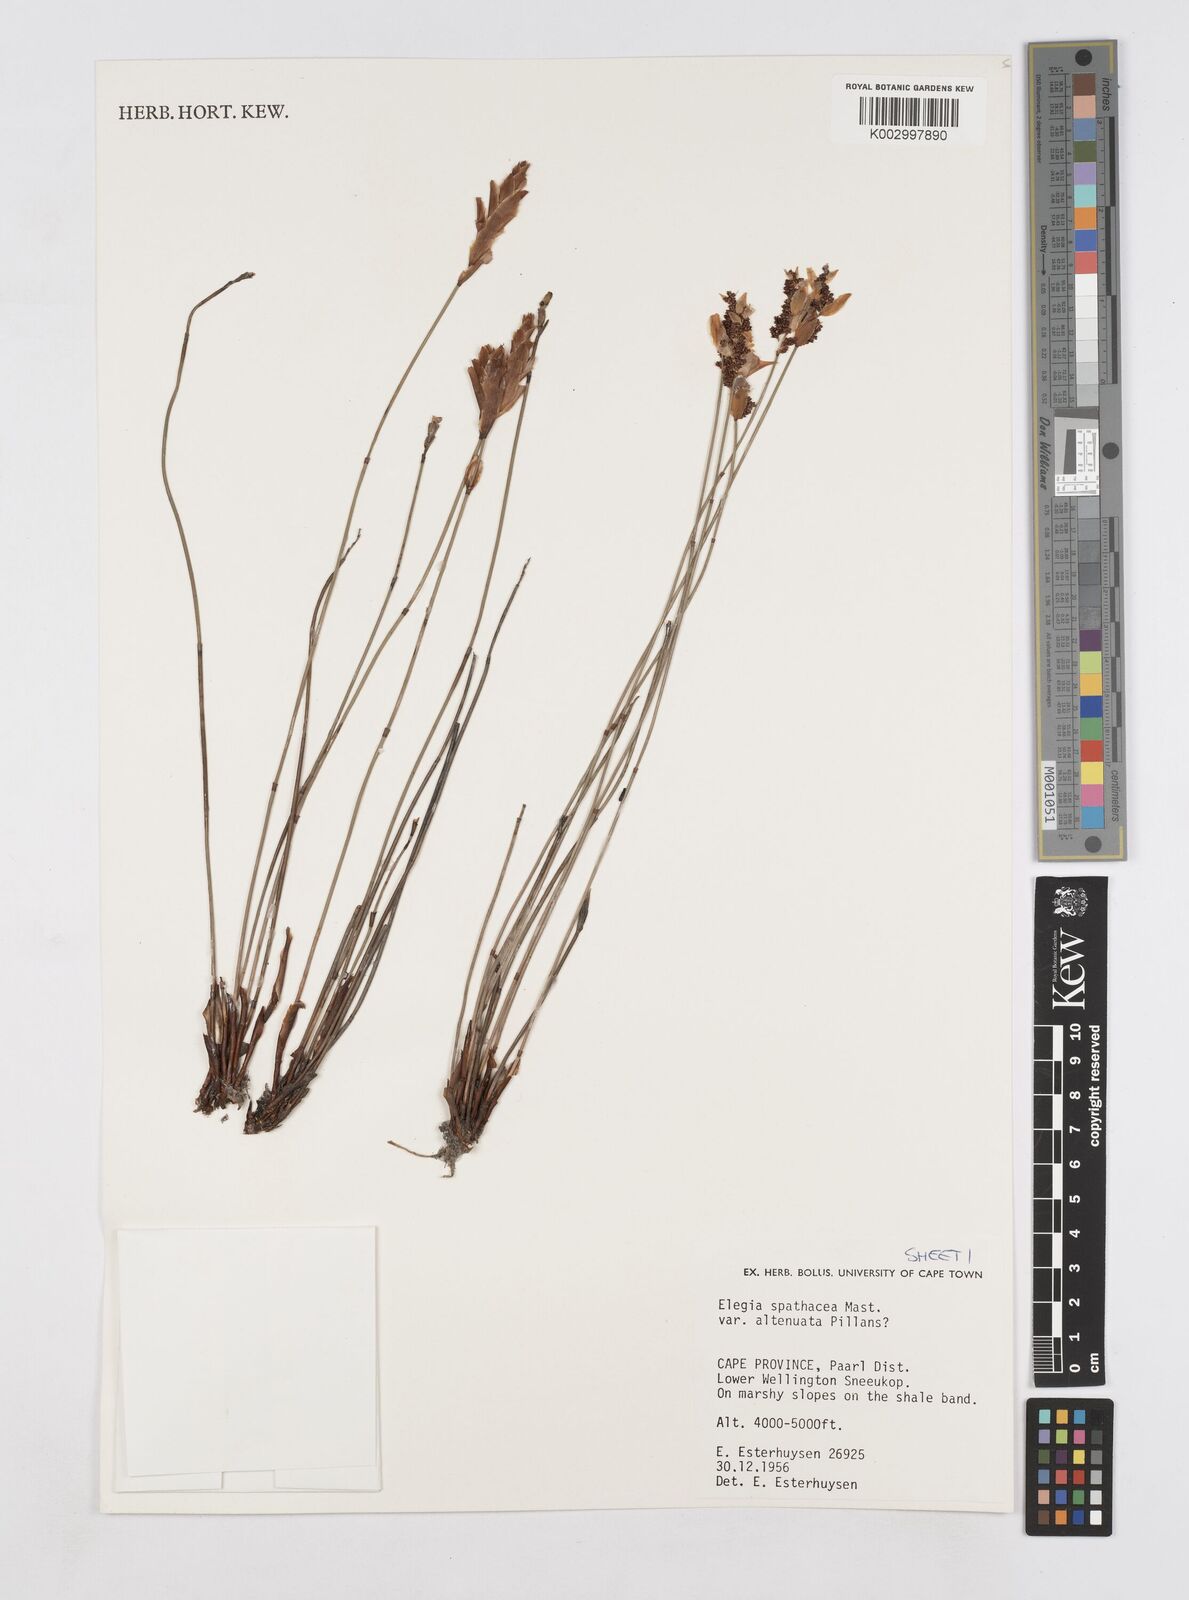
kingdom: Plantae
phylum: Tracheophyta
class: Liliopsida
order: Poales
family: Restionaceae
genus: Elegia
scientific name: Elegia rigida
